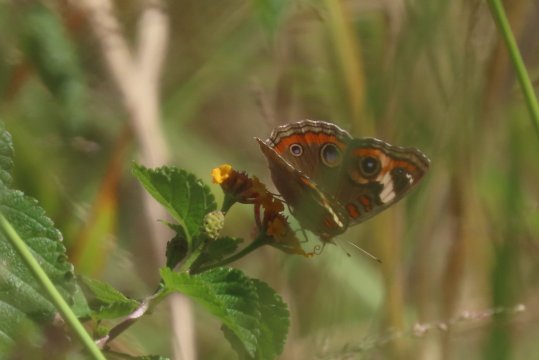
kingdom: Animalia
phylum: Arthropoda
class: Insecta
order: Lepidoptera
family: Nymphalidae
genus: Junonia
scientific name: Junonia coenia
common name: Common Buckeye
